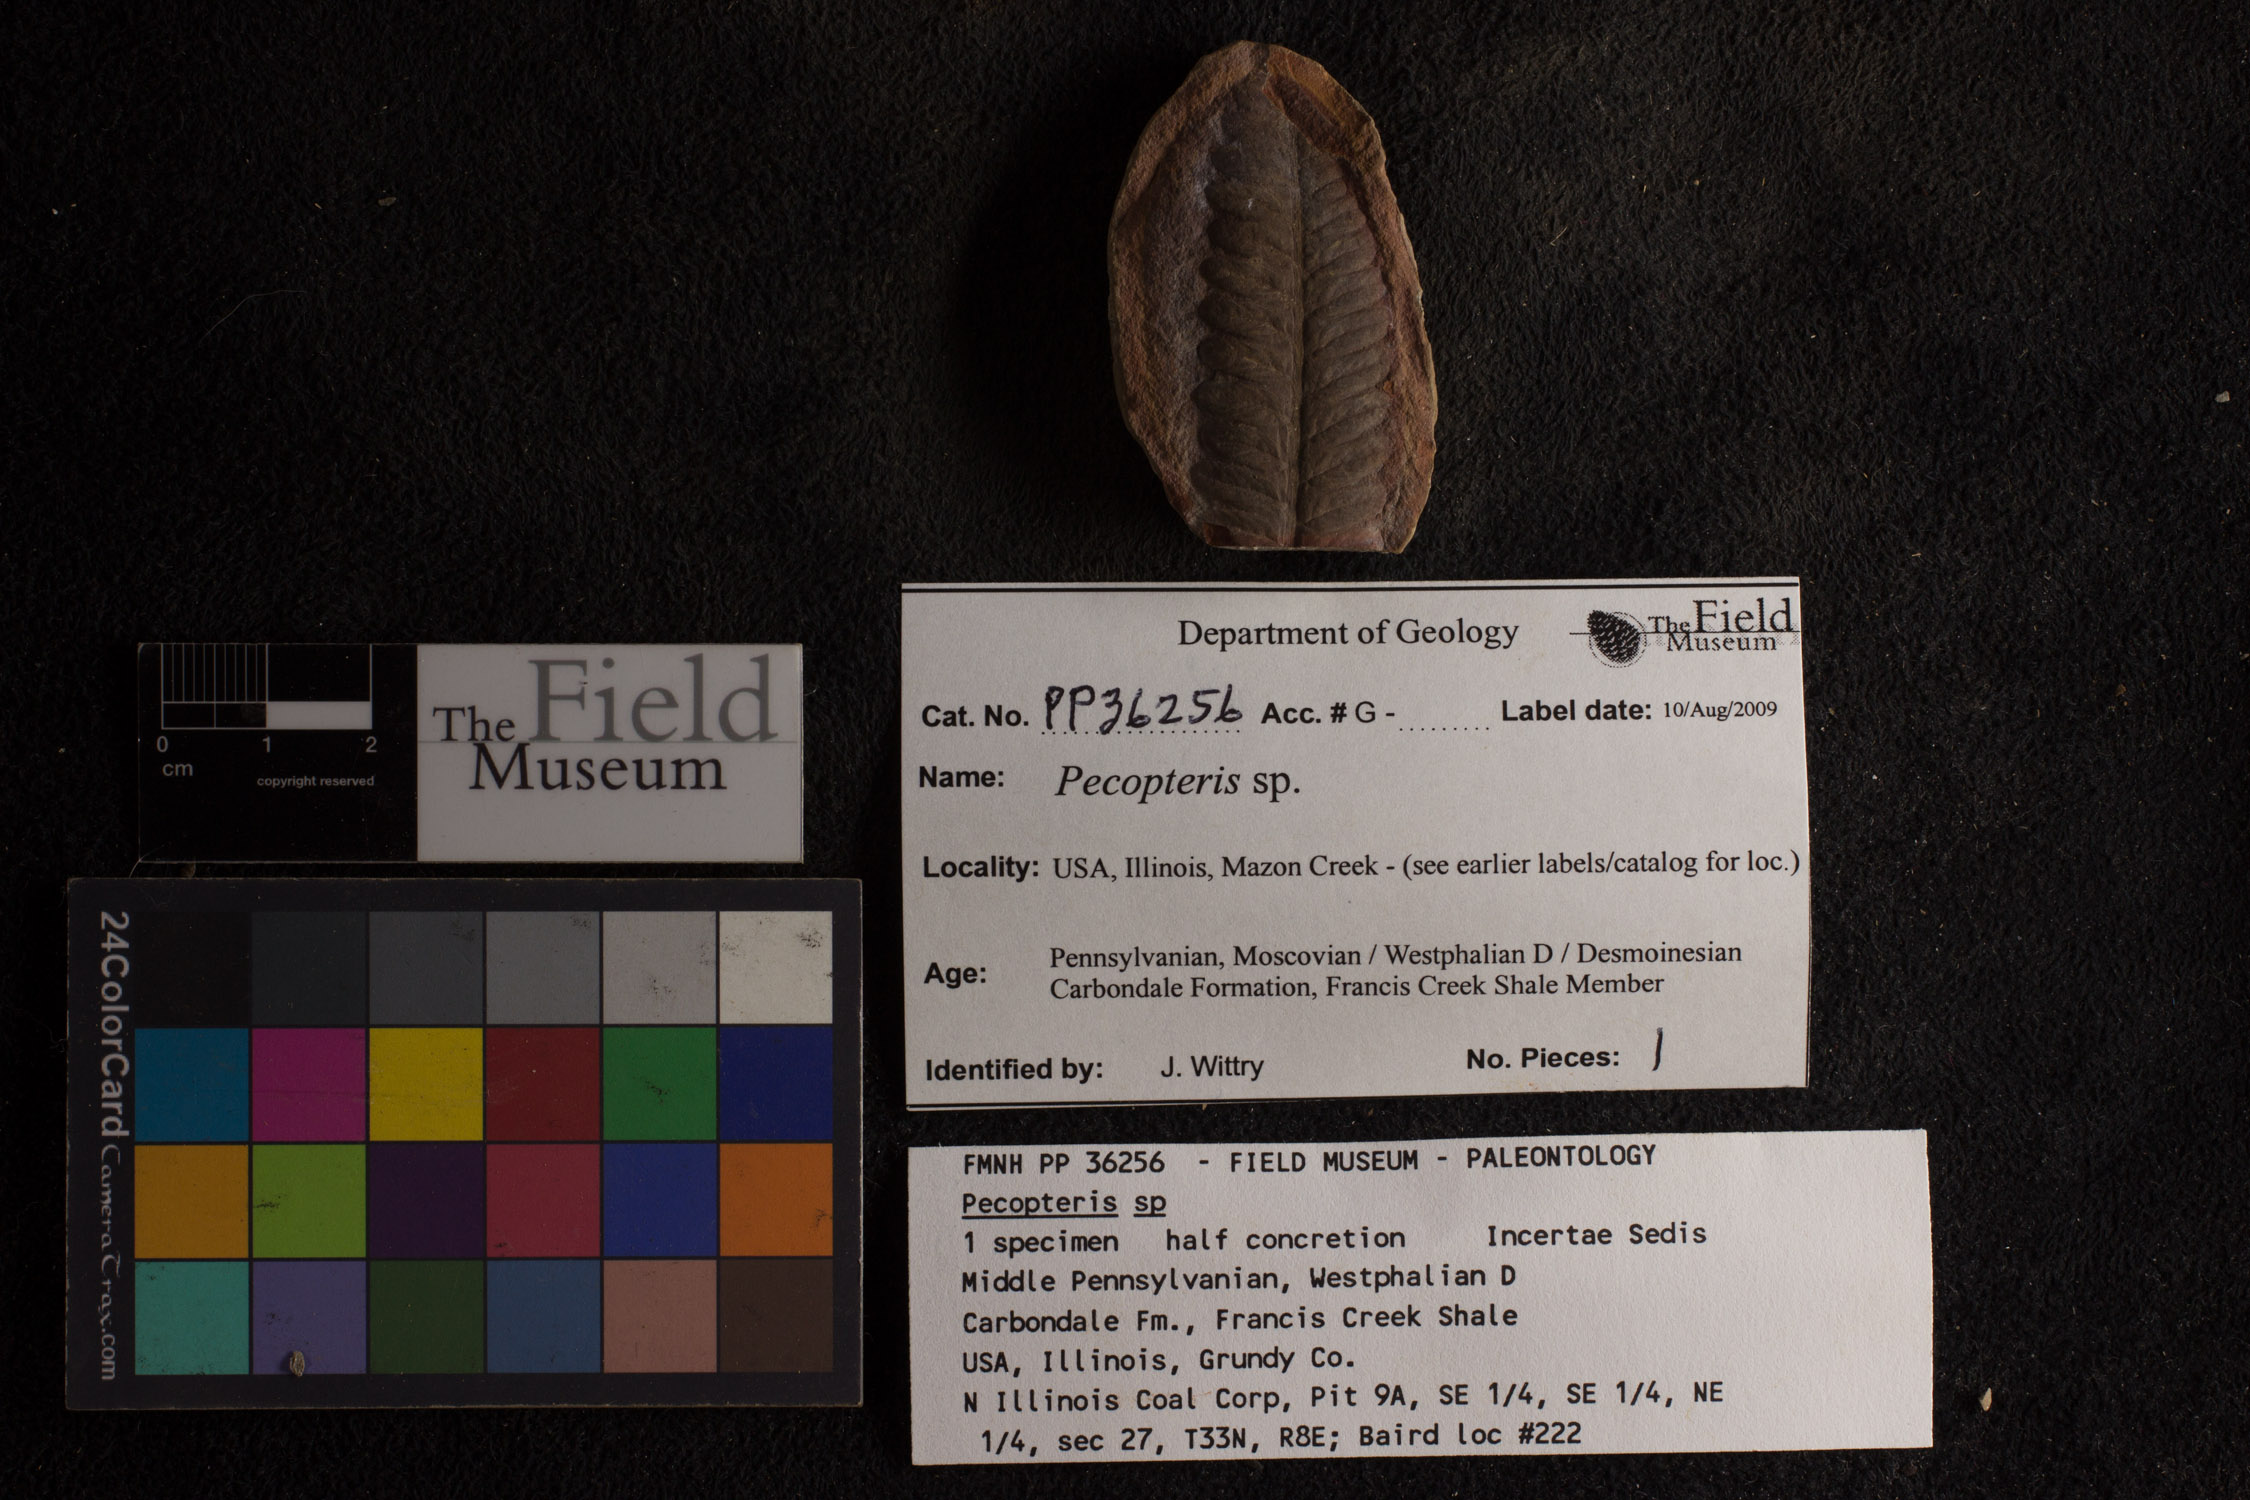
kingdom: Plantae
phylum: Tracheophyta
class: Polypodiopsida
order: Marattiales
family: Asterothecaceae
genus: Pecopteris
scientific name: Pecopteris
